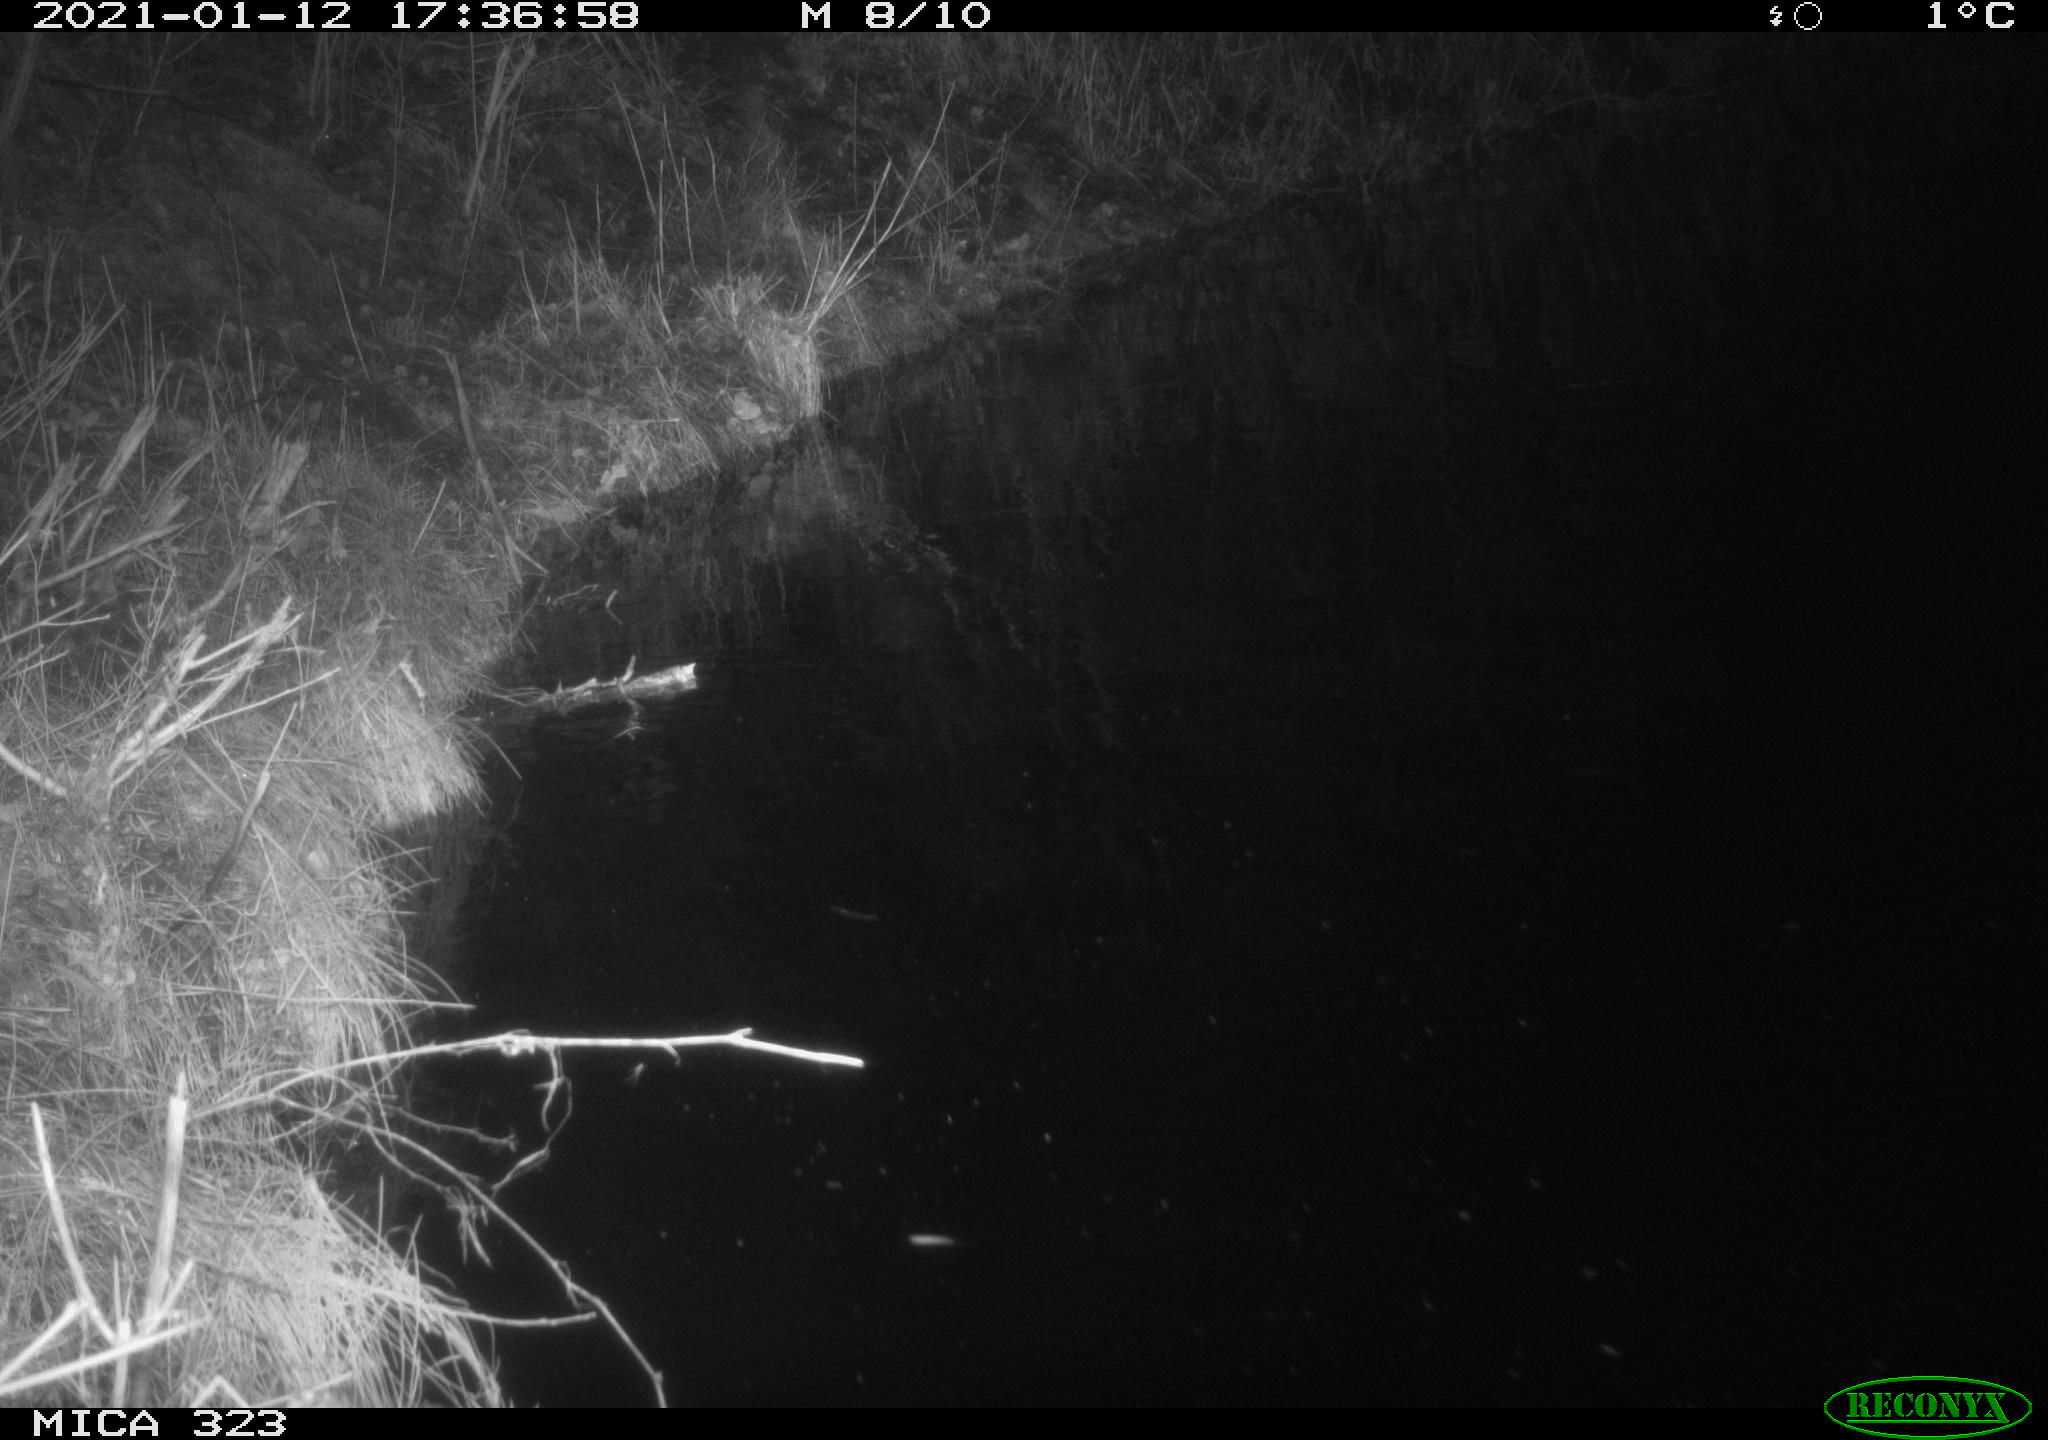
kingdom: Animalia
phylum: Chordata
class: Mammalia
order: Rodentia
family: Myocastoridae
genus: Myocastor
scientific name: Myocastor coypus
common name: Coypu
